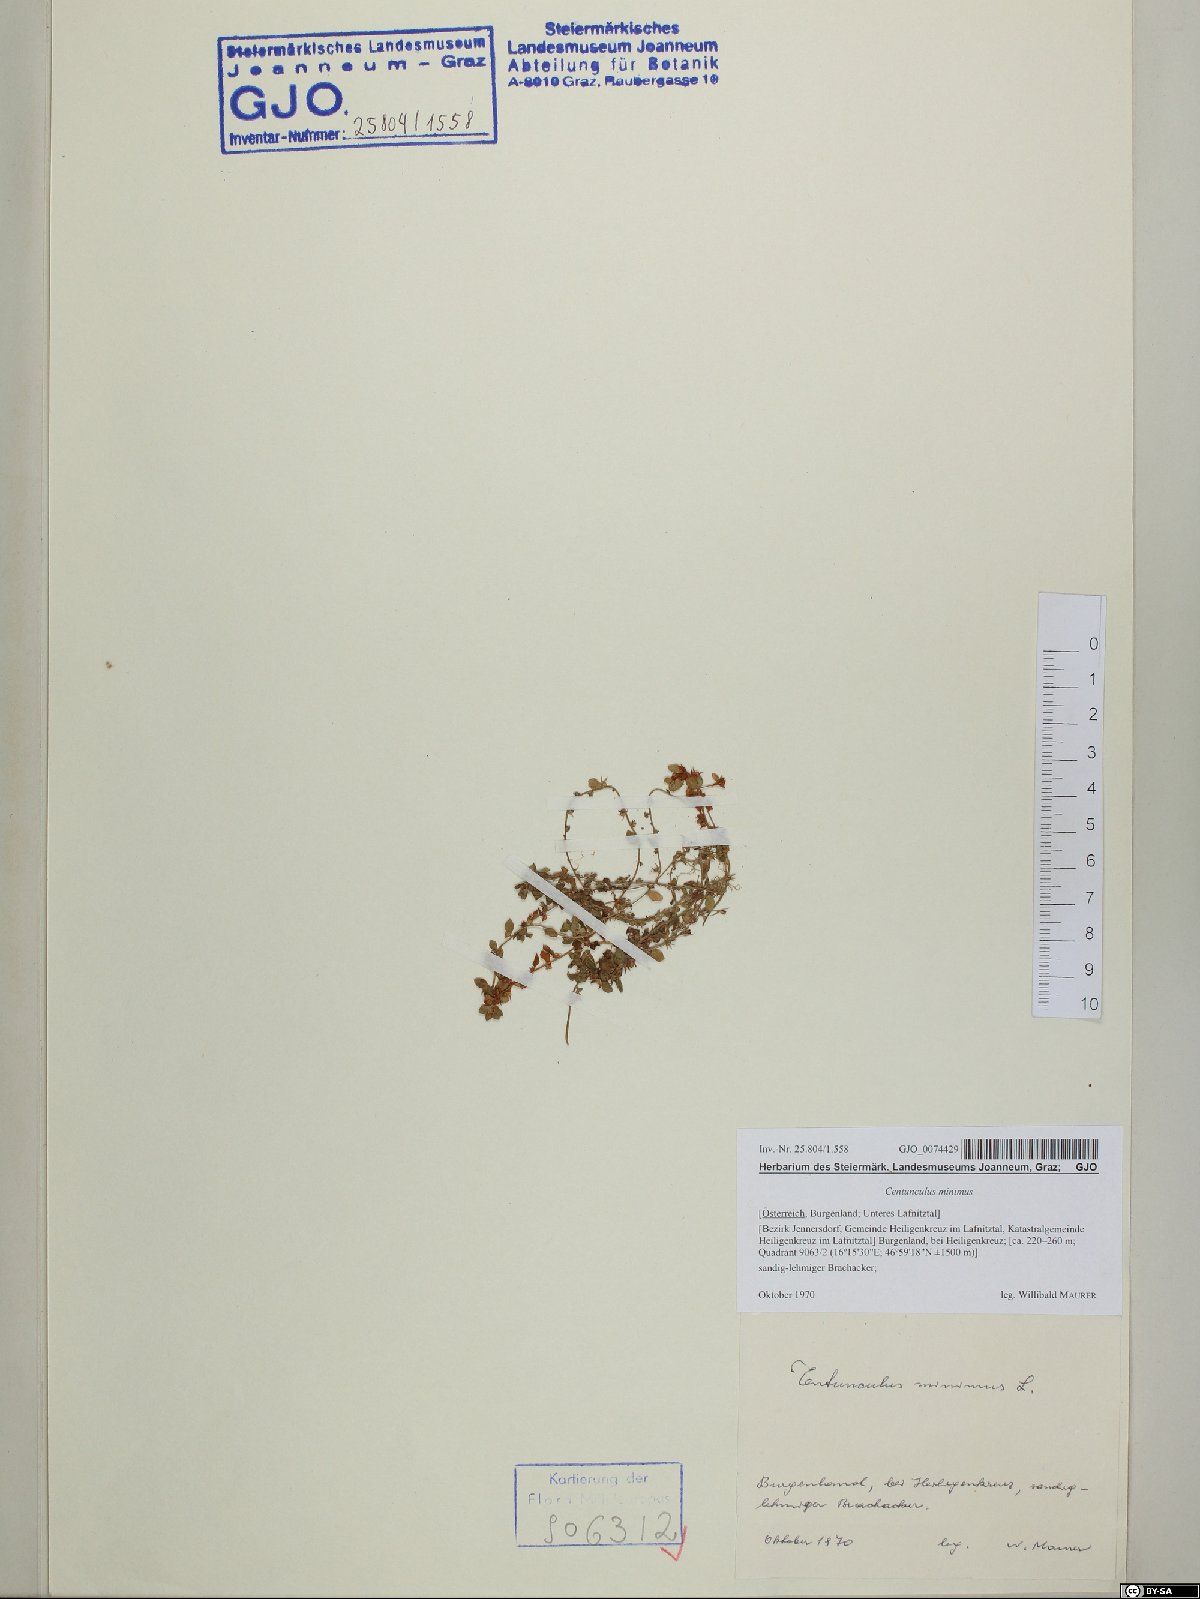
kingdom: Plantae
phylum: Tracheophyta
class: Magnoliopsida
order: Ericales
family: Primulaceae
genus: Lysimachia
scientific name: Lysimachia minima
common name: Chaffweed
